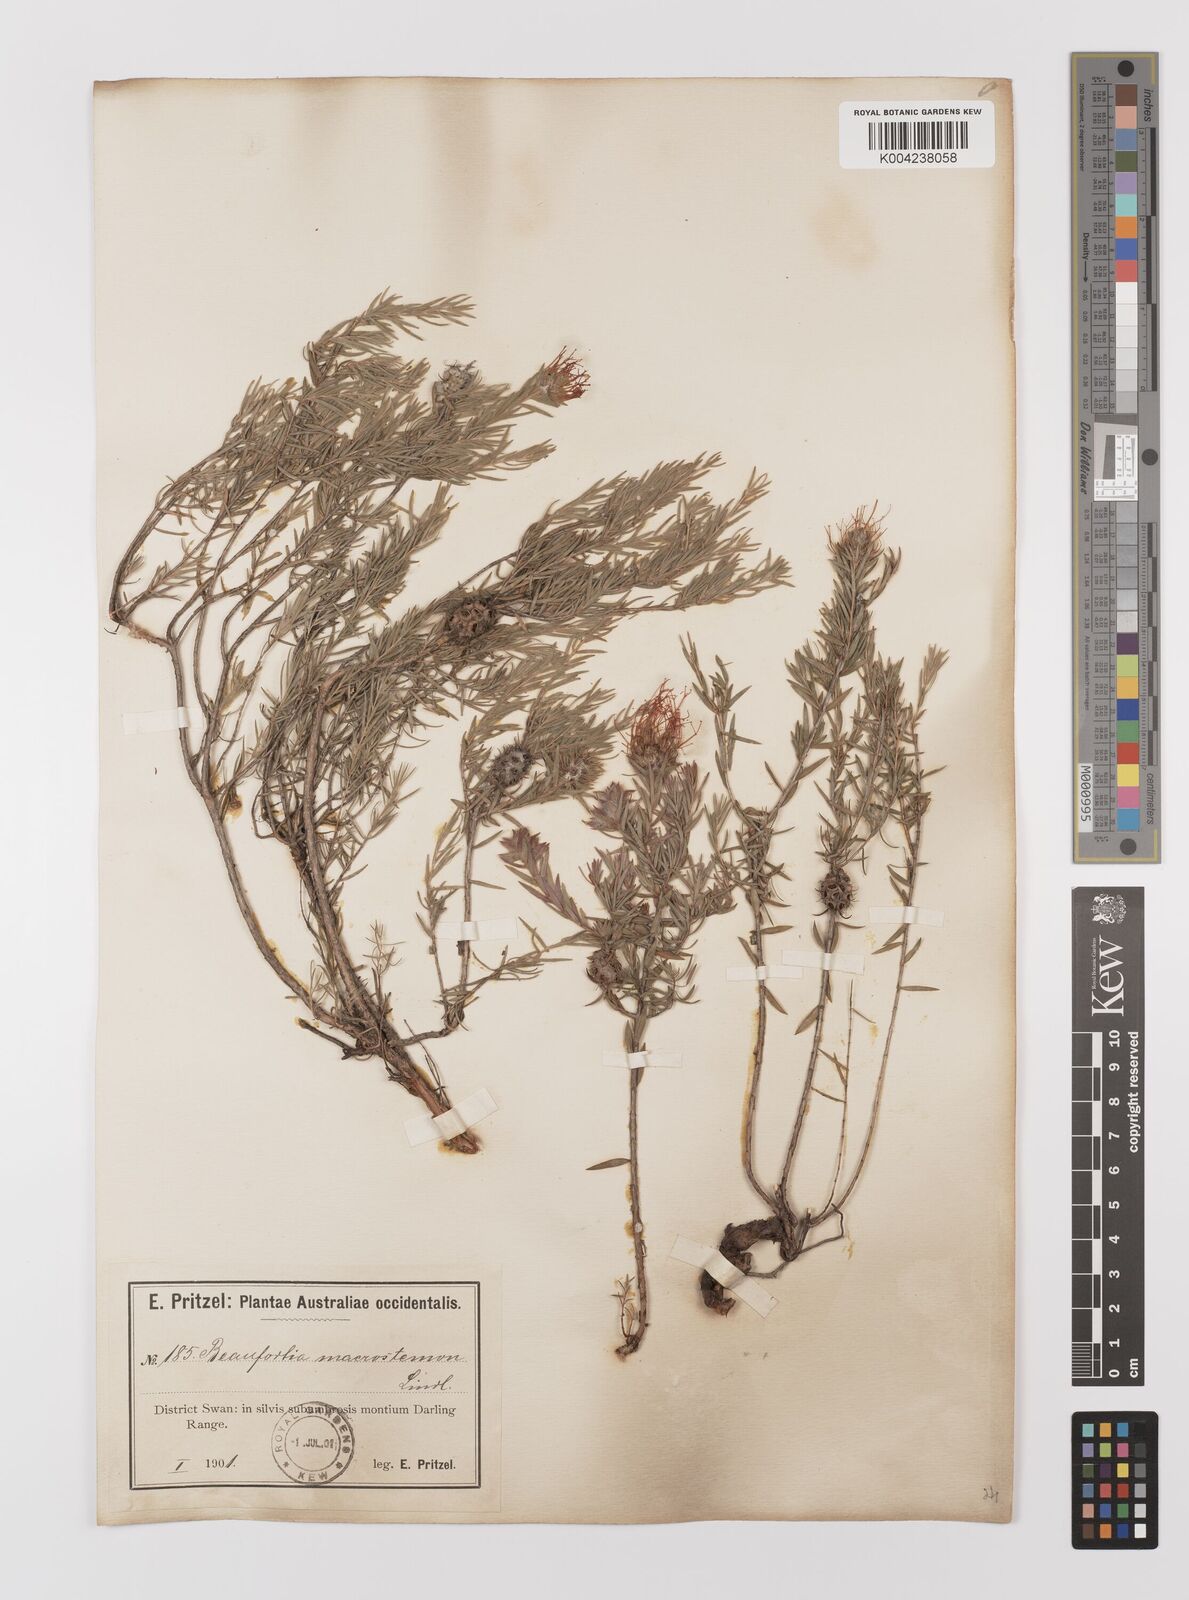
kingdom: Plantae
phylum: Tracheophyta
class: Magnoliopsida
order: Myrtales
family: Myrtaceae
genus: Melaleuca
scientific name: Melaleuca macrostemon
